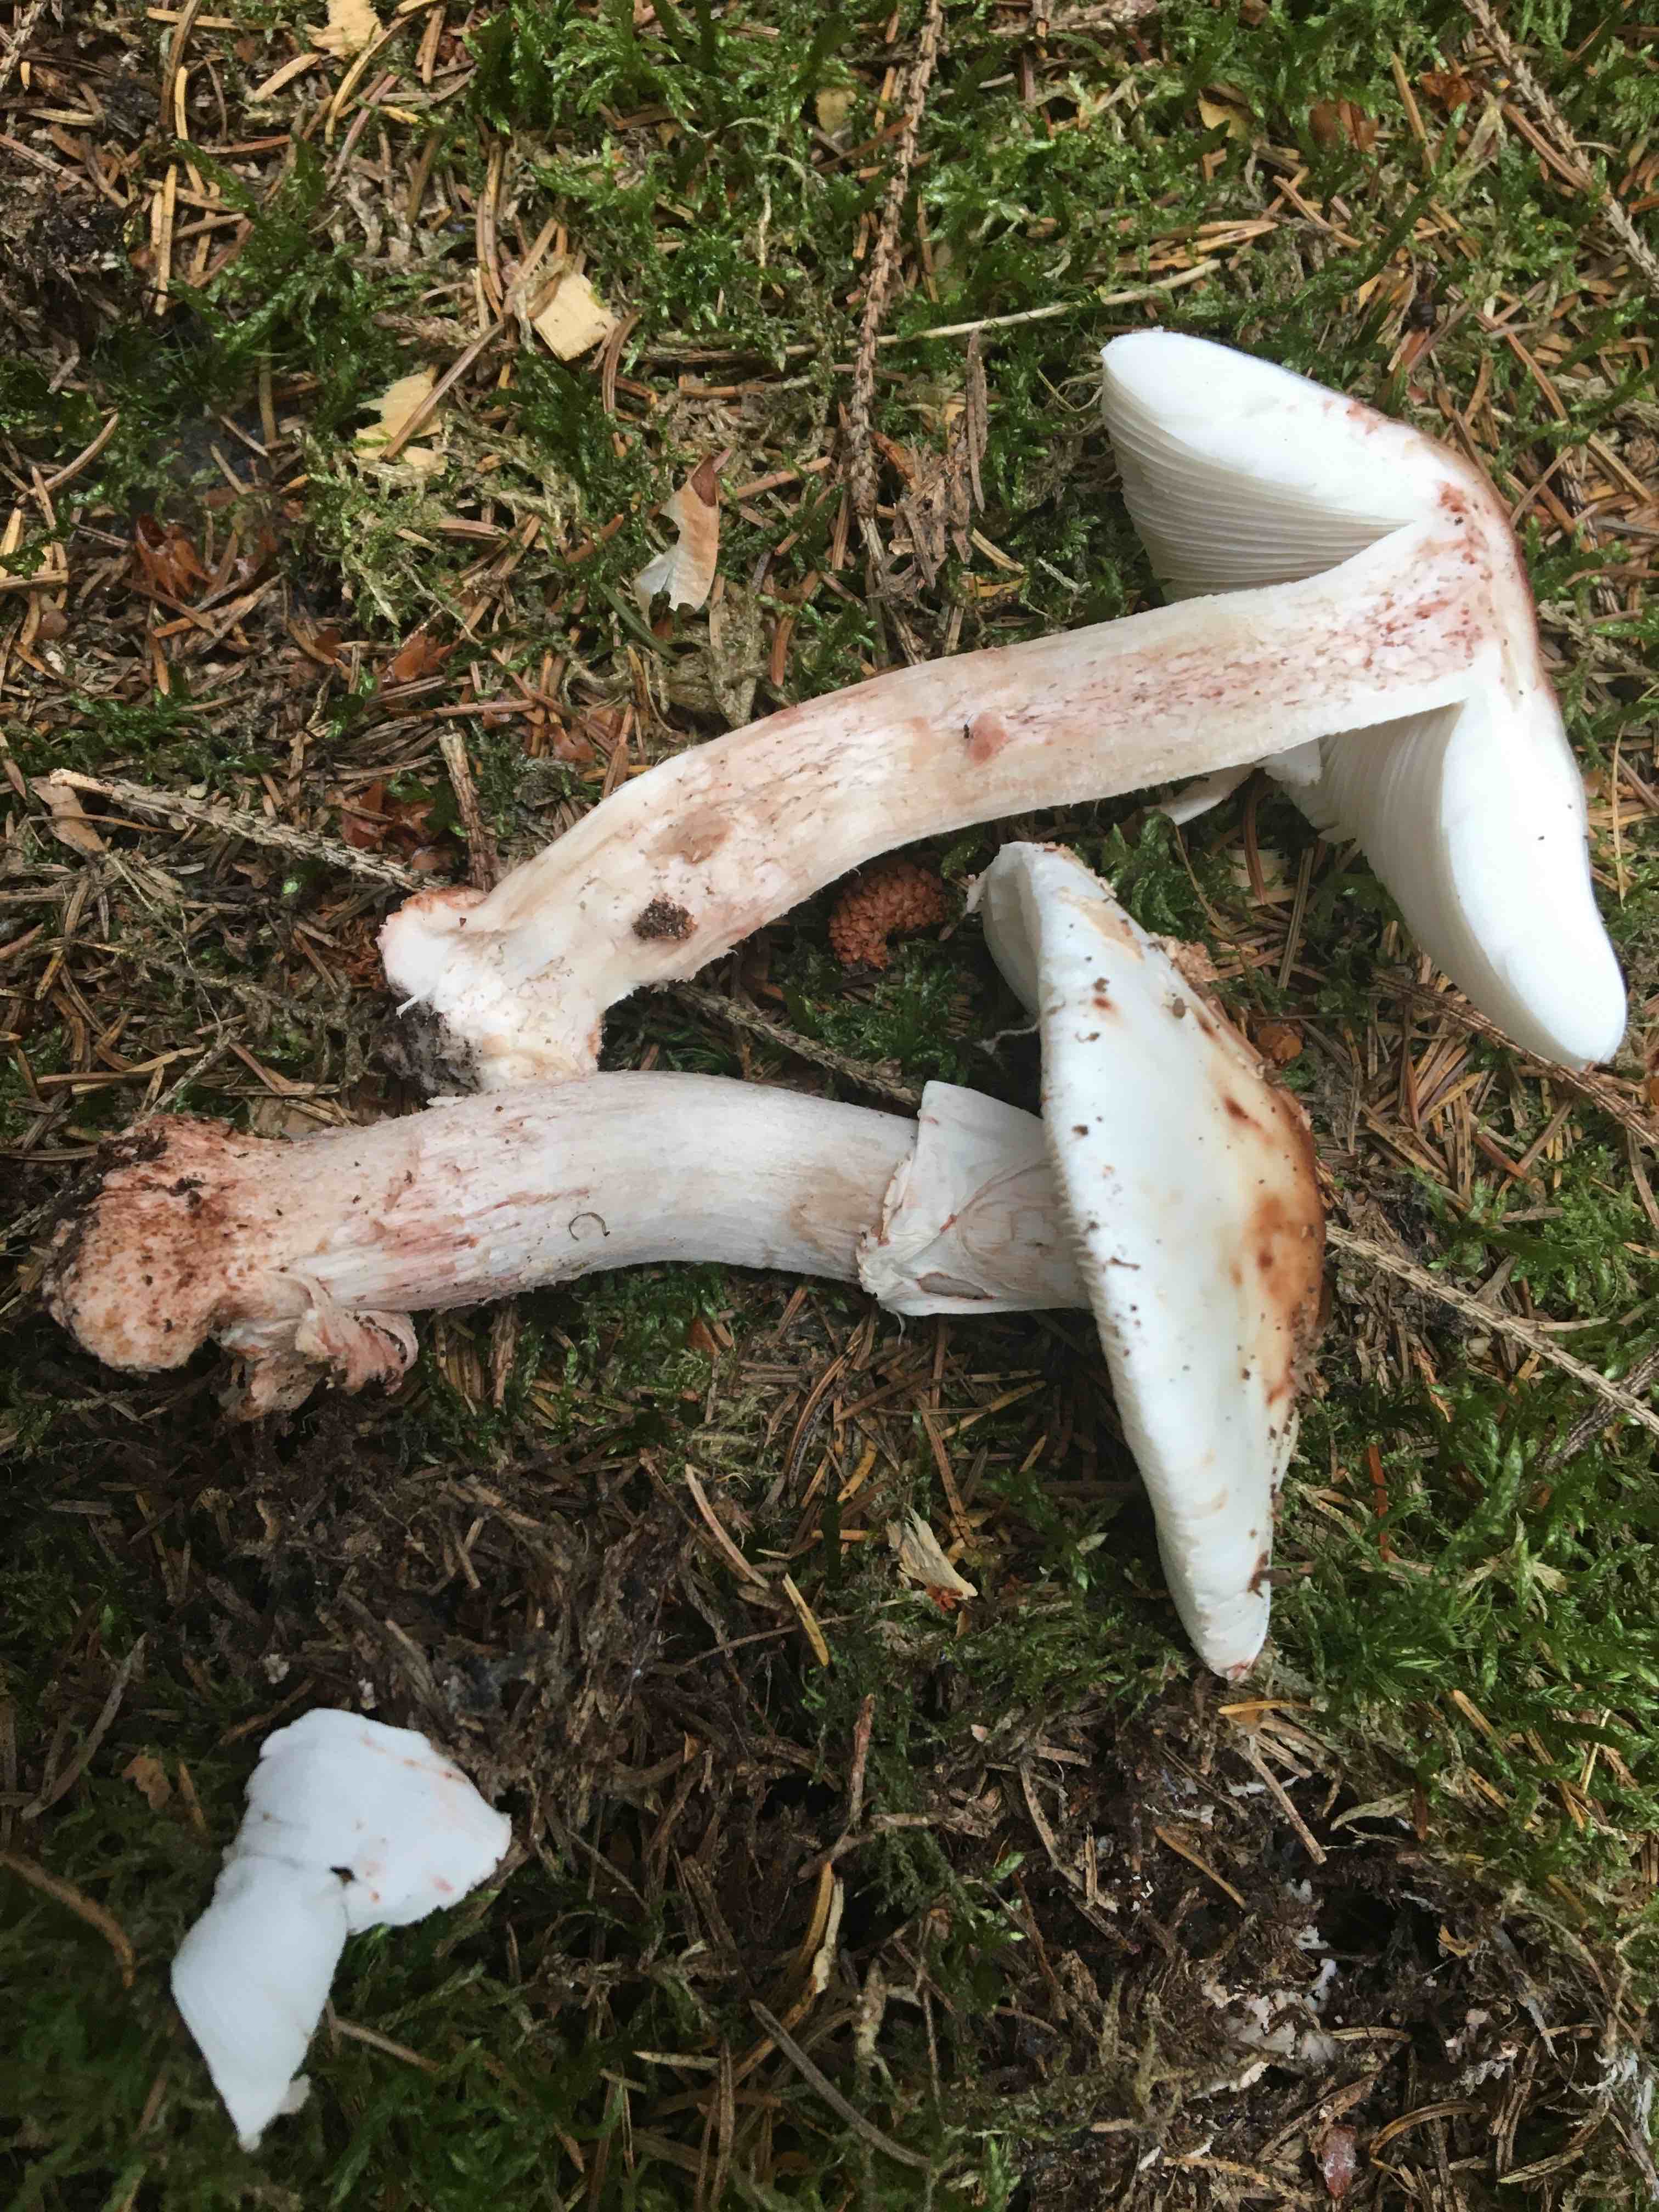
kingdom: Fungi
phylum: Basidiomycota
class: Agaricomycetes
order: Agaricales
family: Amanitaceae
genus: Amanita
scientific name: Amanita rubescens
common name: rødmende fluesvamp
